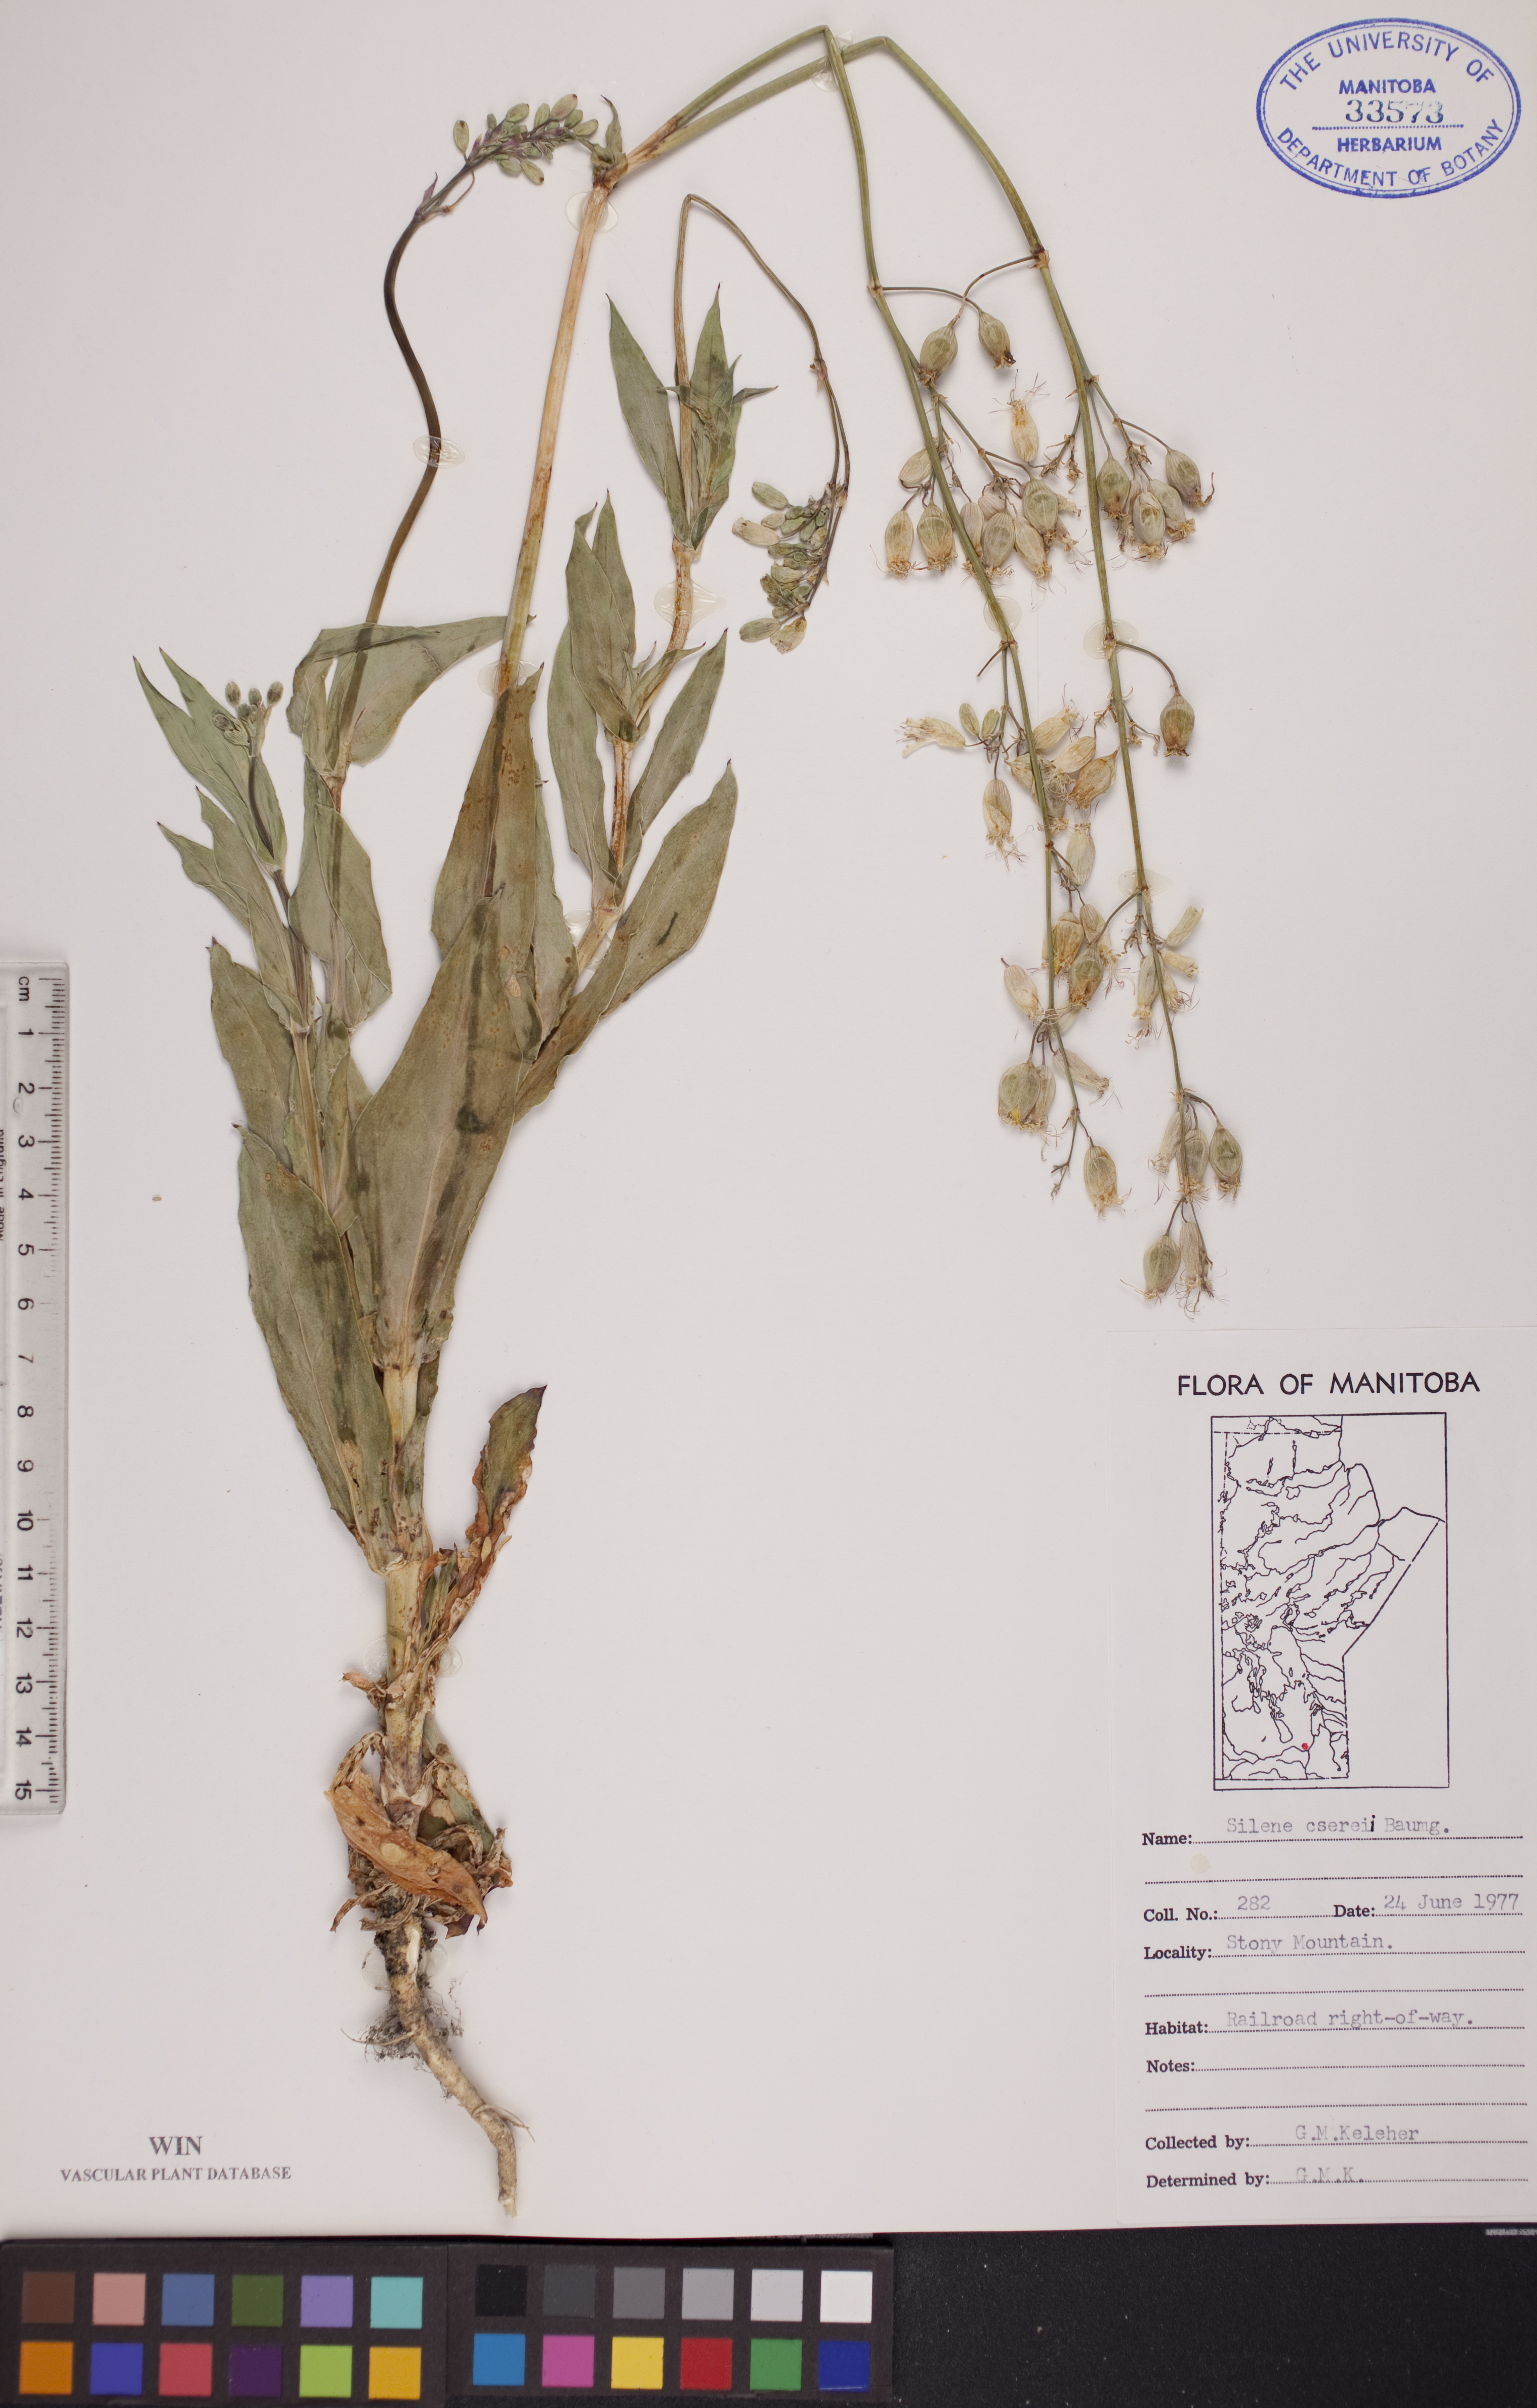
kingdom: Plantae
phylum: Tracheophyta
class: Magnoliopsida
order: Caryophyllales
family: Caryophyllaceae
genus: Silene
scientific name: Silene csereii
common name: Balkan catchfly
